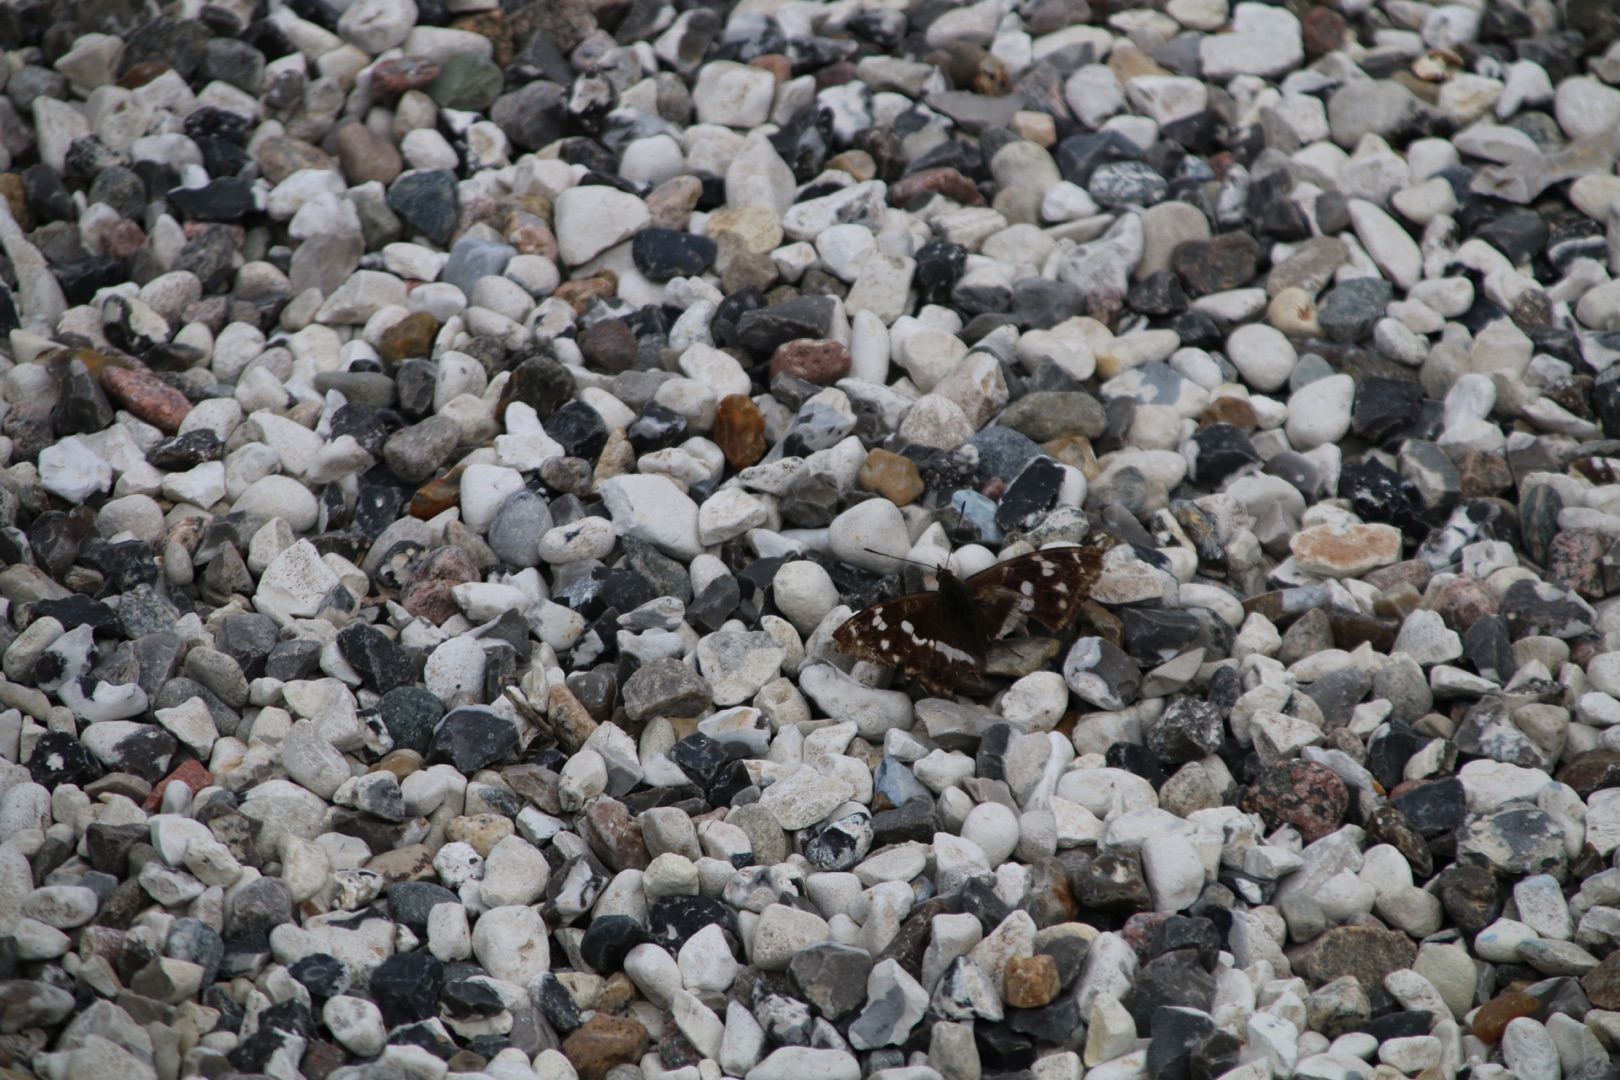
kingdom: Animalia
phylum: Arthropoda
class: Insecta
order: Lepidoptera
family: Nymphalidae
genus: Apatura
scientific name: Apatura iris
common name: Iris
